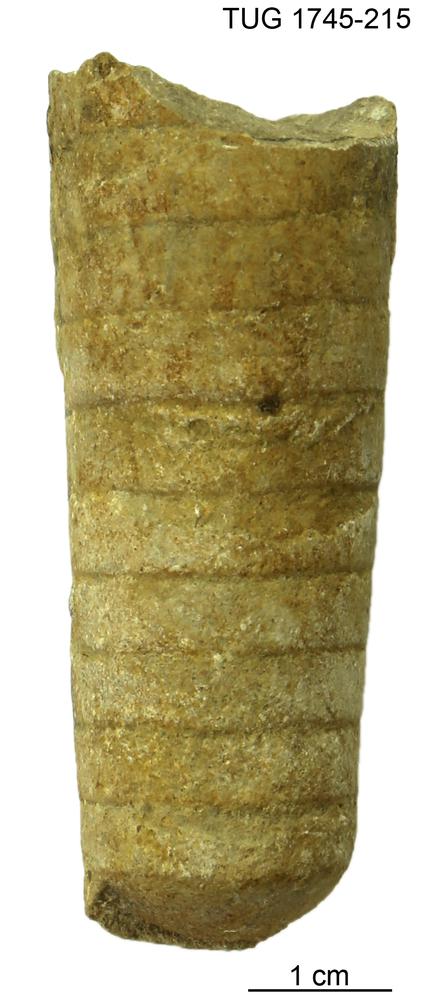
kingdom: Animalia
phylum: Mollusca
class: Cephalopoda
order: Orthocerida
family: Orthoceratidae
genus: Orthoceras
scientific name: Orthoceras
